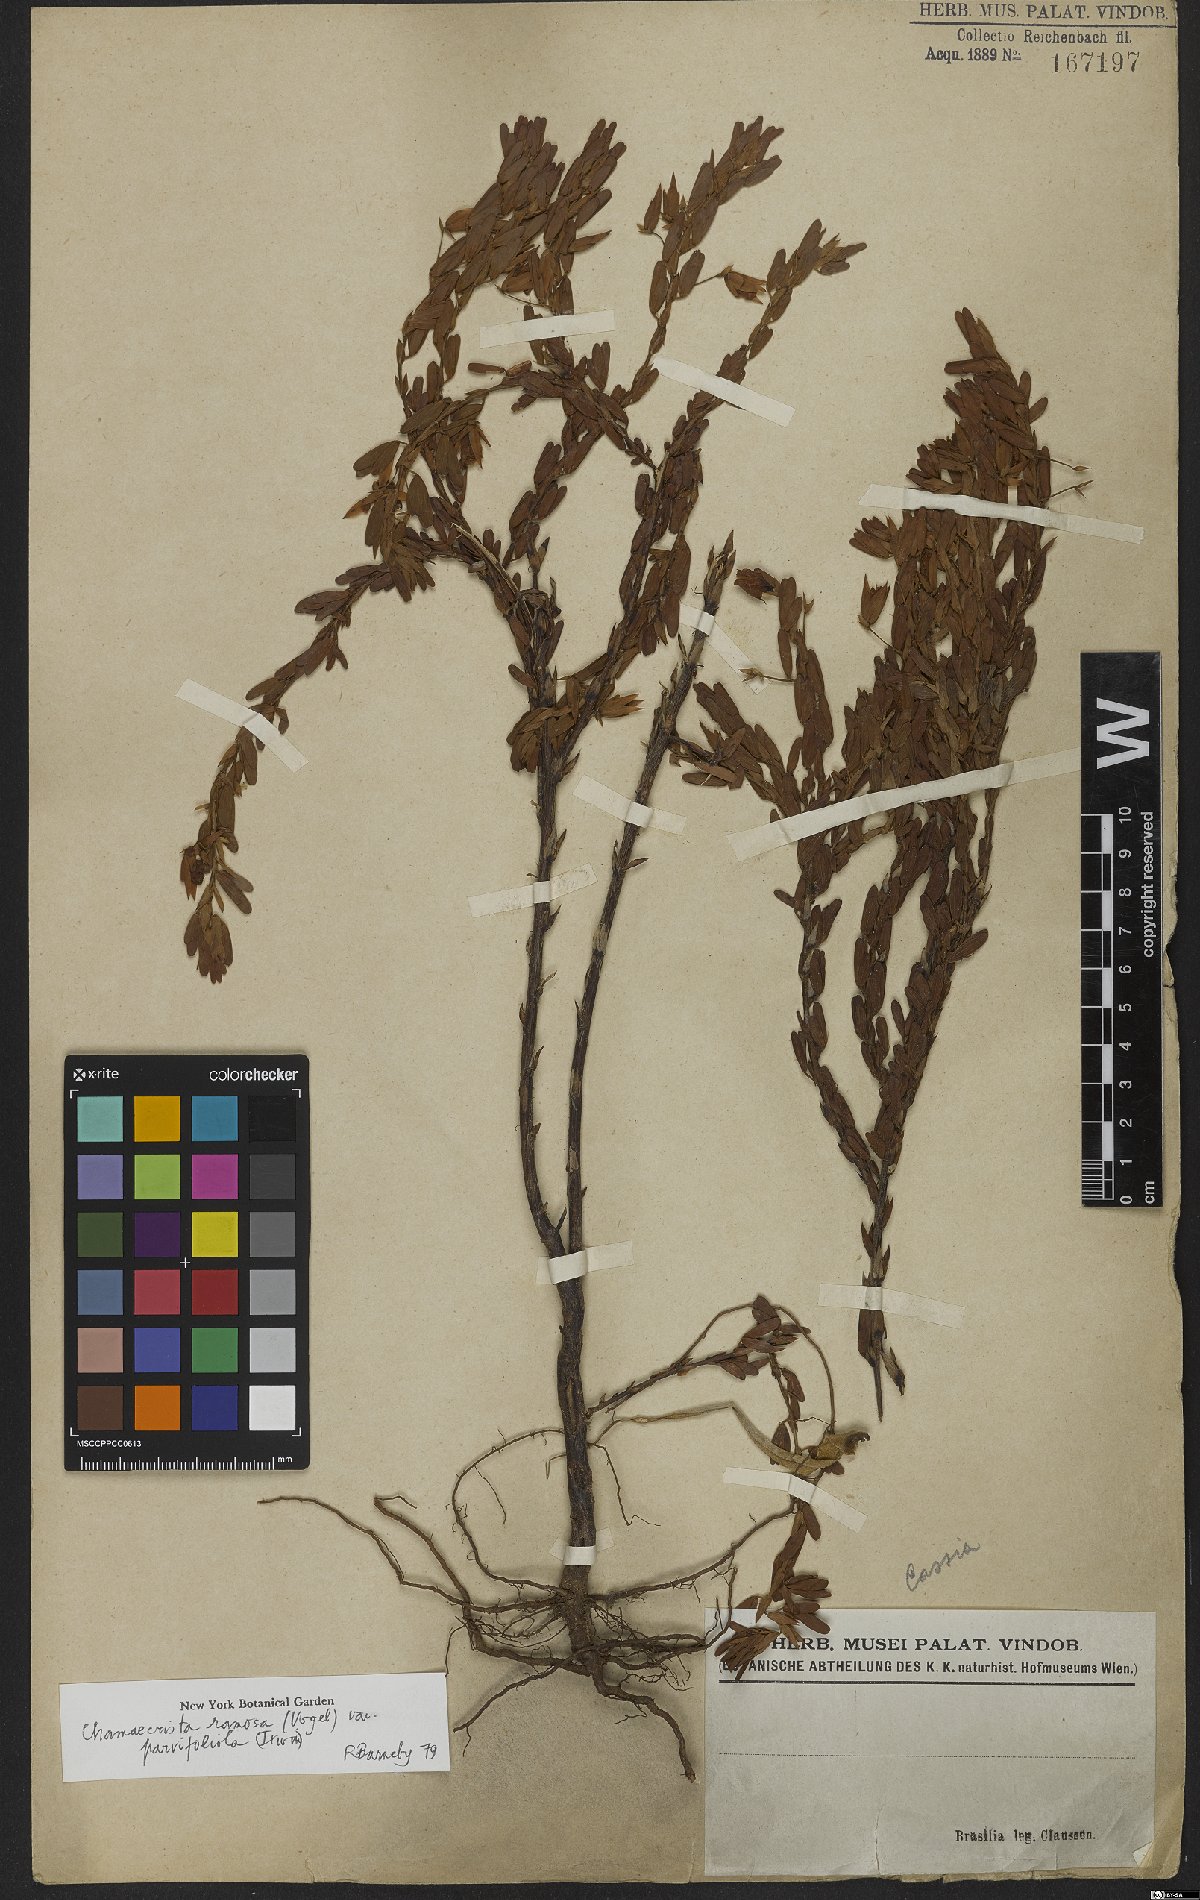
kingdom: Plantae
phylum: Tracheophyta
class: Magnoliopsida
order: Fabales
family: Fabaceae
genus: Chamaecrista
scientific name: Chamaecrista ramosa
